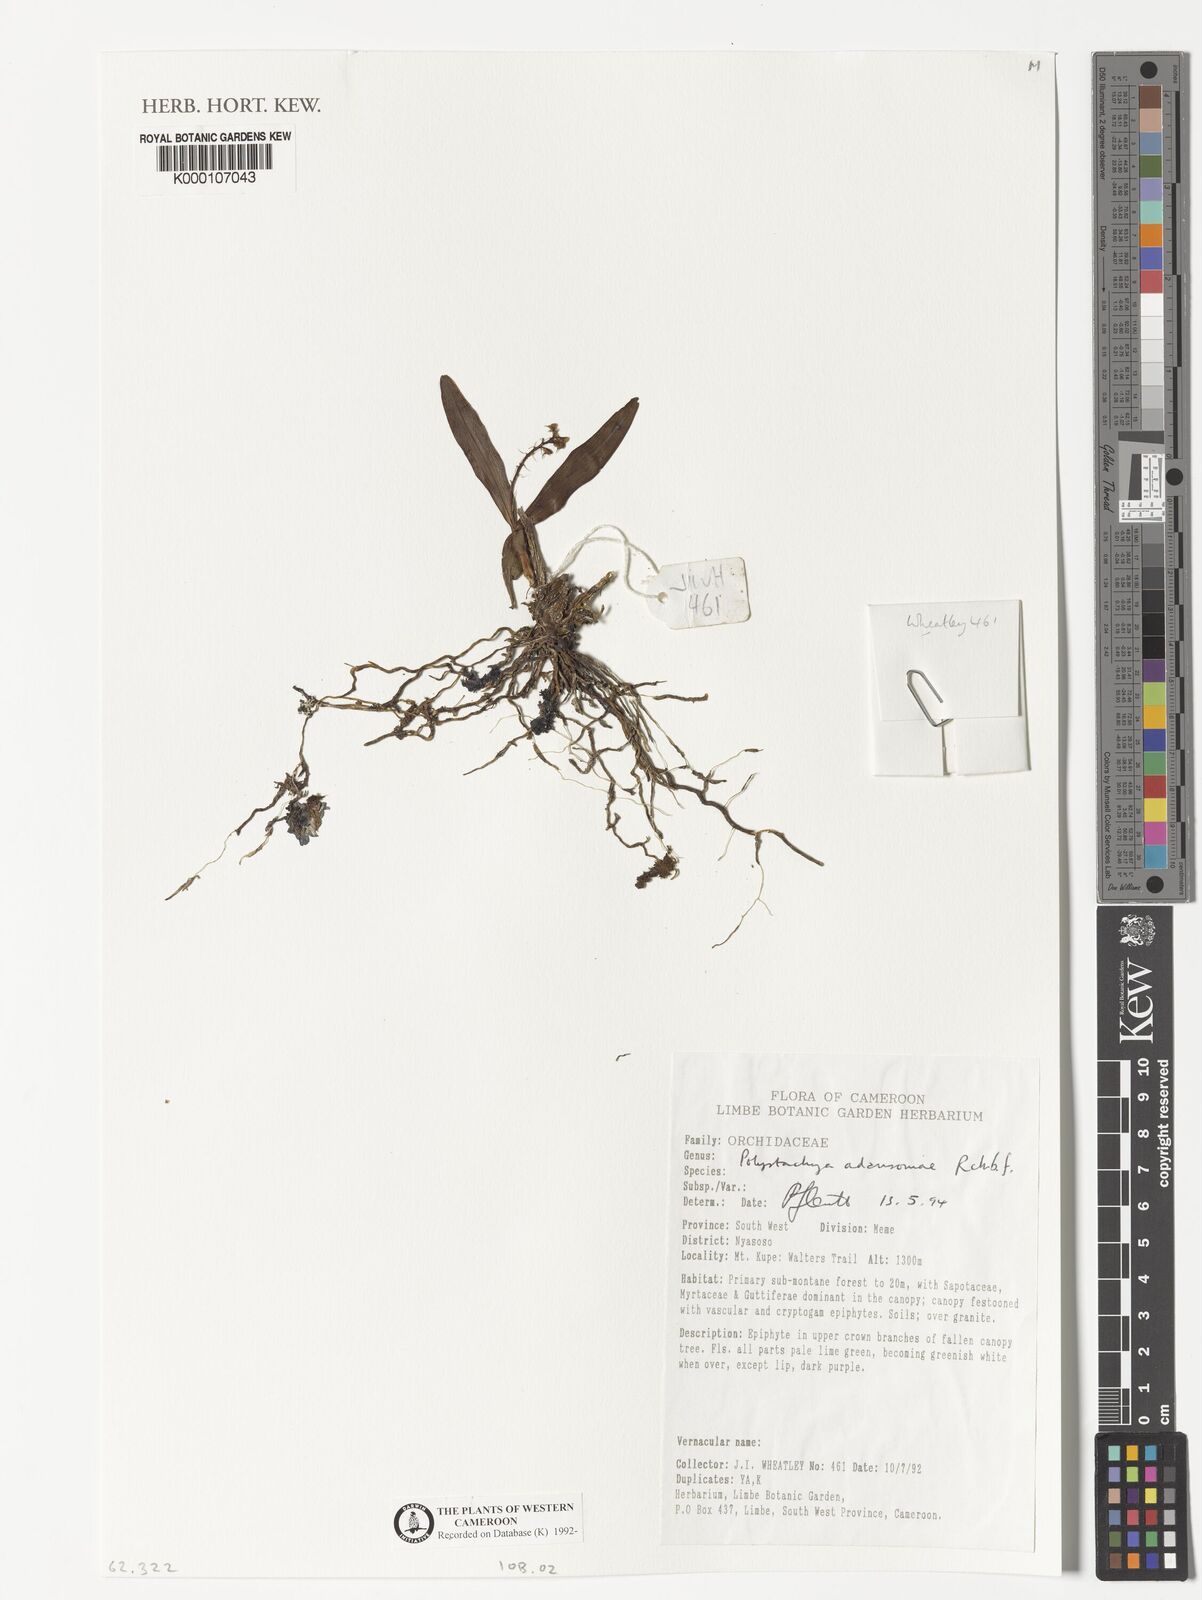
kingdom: Plantae
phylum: Tracheophyta
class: Liliopsida
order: Asparagales
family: Orchidaceae
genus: Polystachya
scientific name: Polystachya adansoniae
